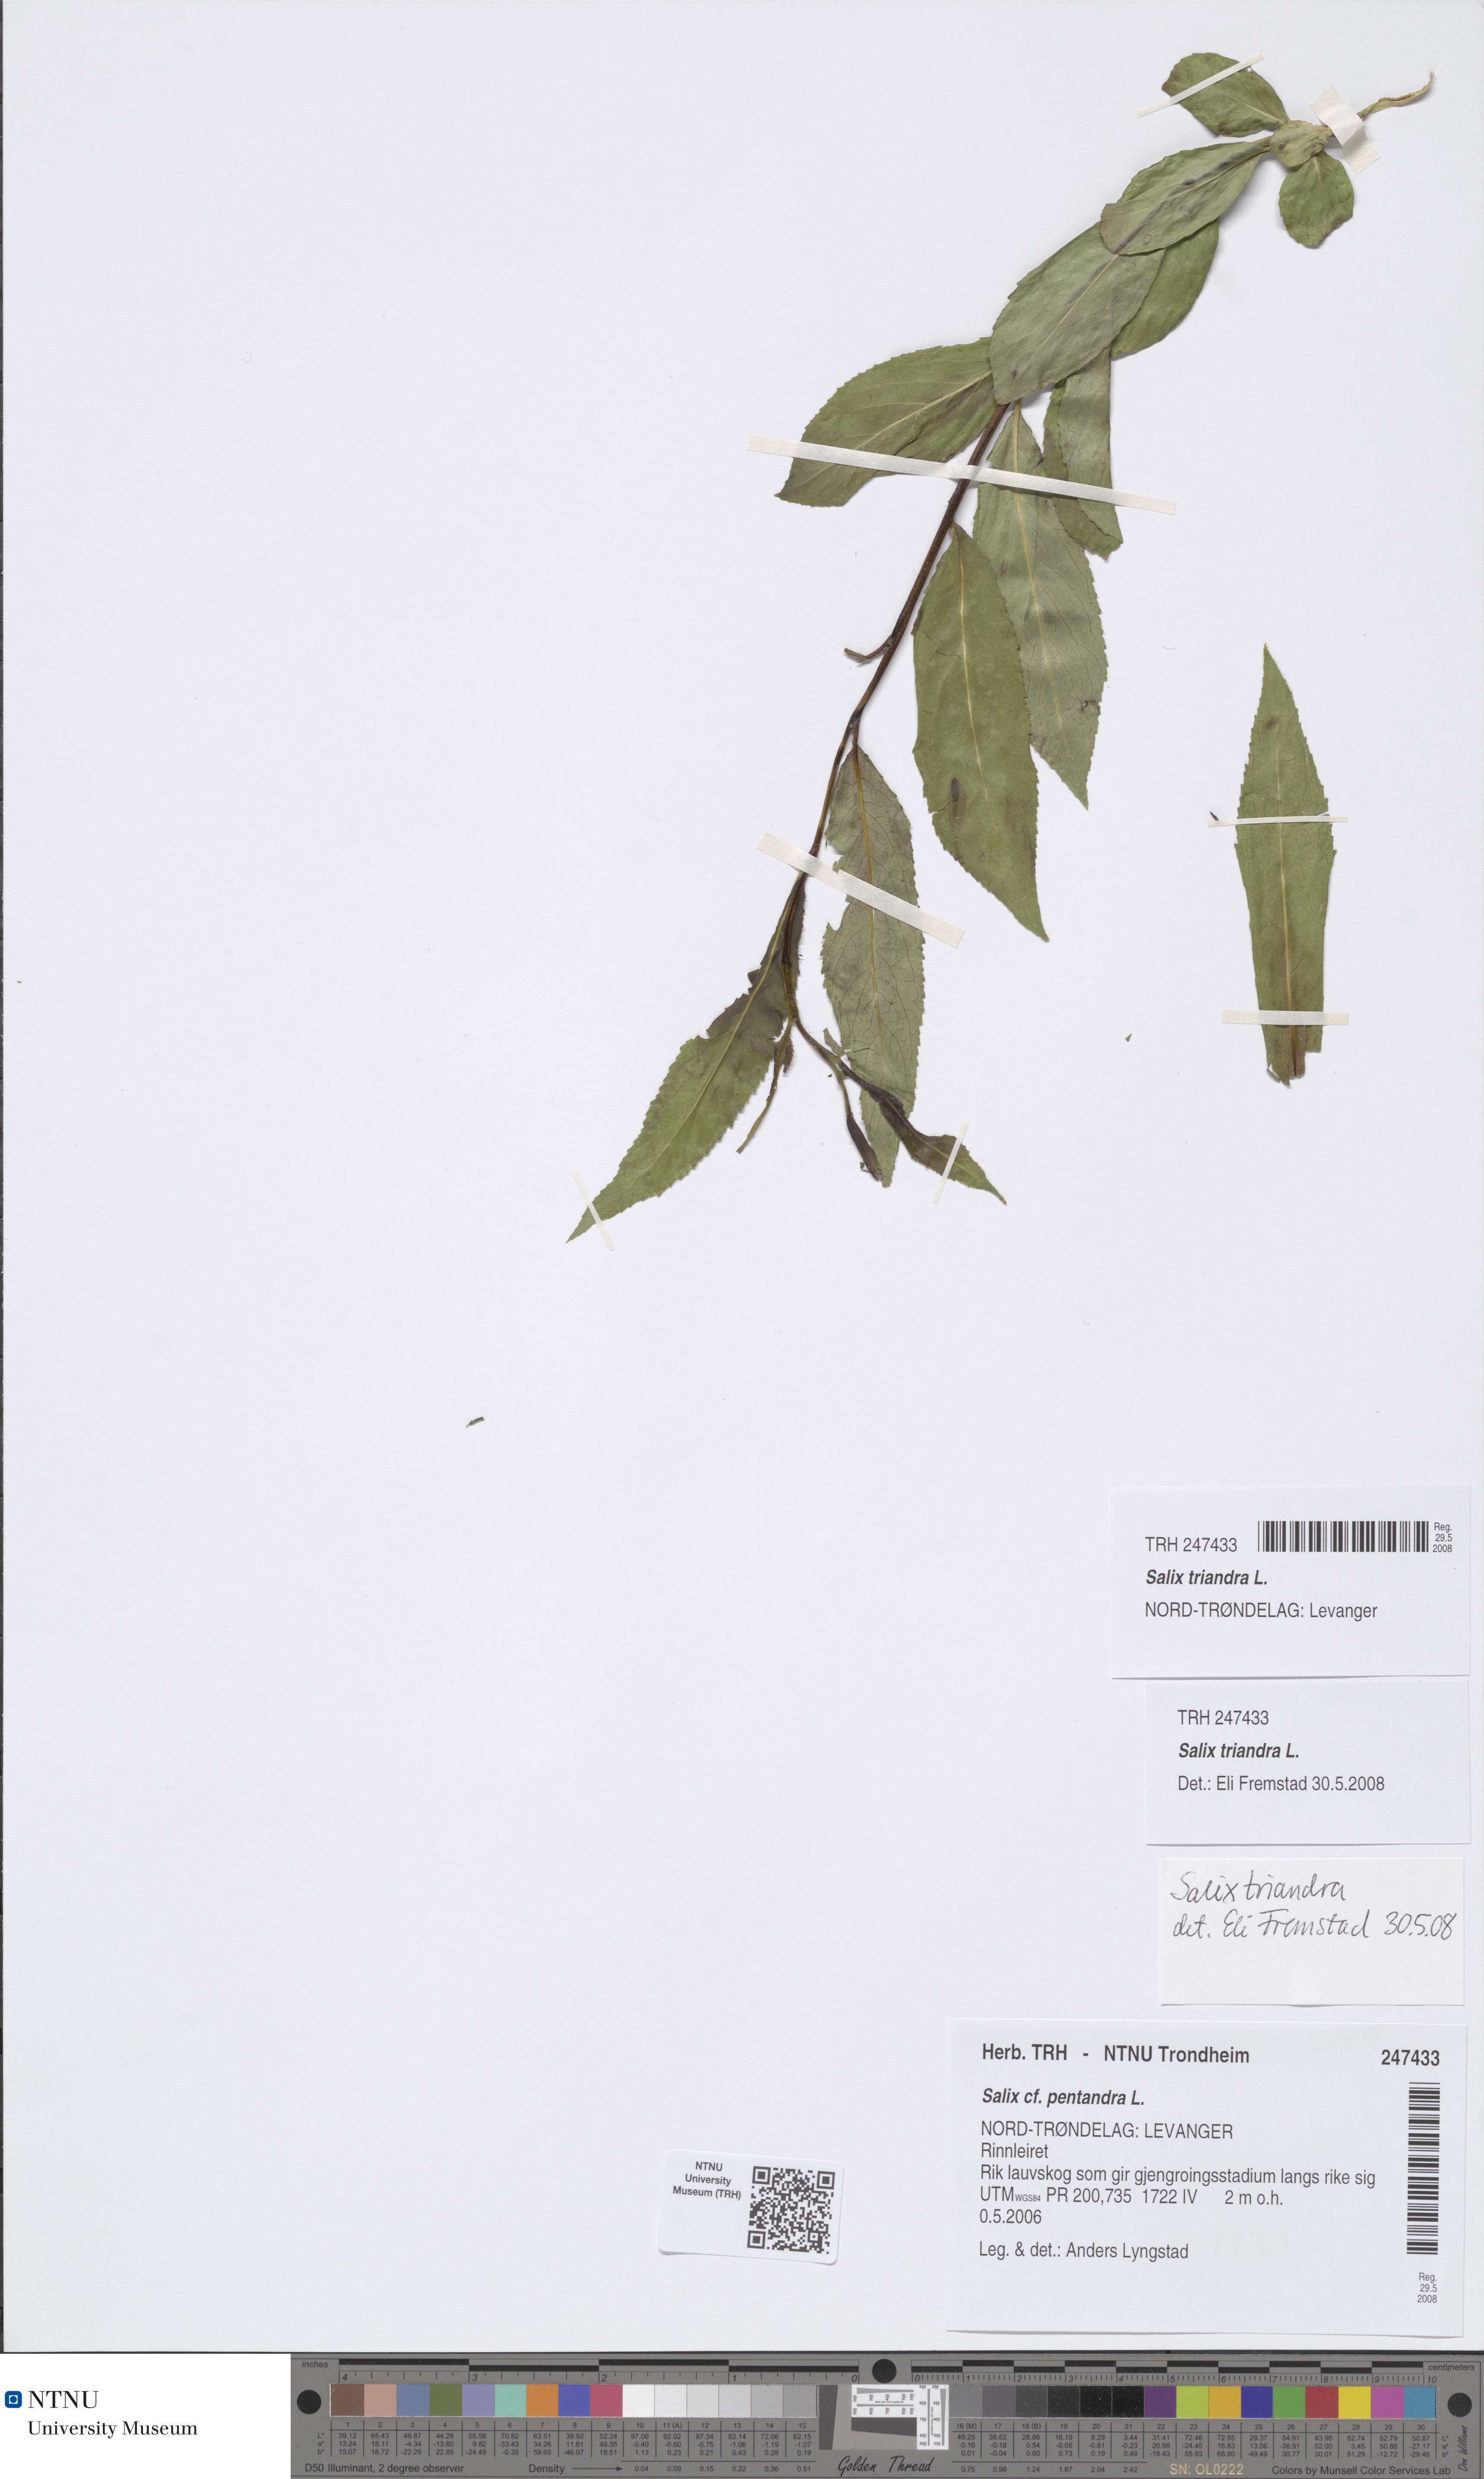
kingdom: Plantae
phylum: Tracheophyta
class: Magnoliopsida
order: Malpighiales
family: Salicaceae
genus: Salix
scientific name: Salix triandra
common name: Almond willow
